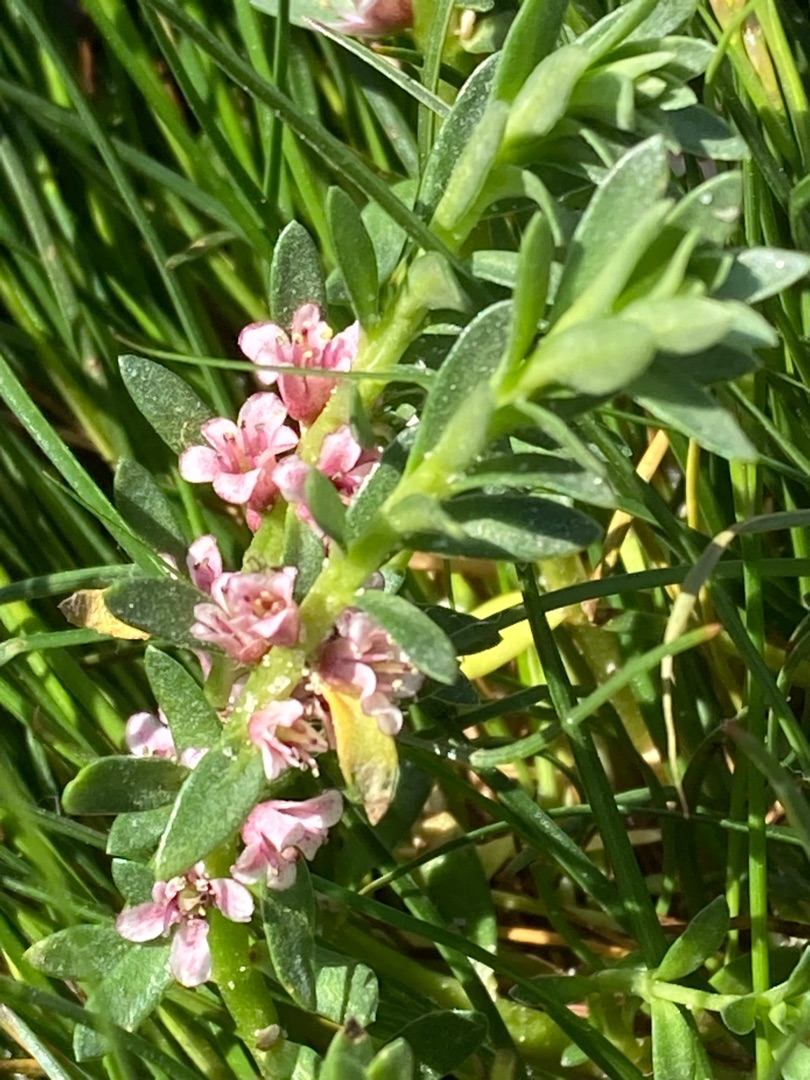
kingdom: Plantae
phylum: Tracheophyta
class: Magnoliopsida
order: Ericales
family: Primulaceae
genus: Lysimachia
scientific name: Lysimachia maritima
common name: Sandkryb
